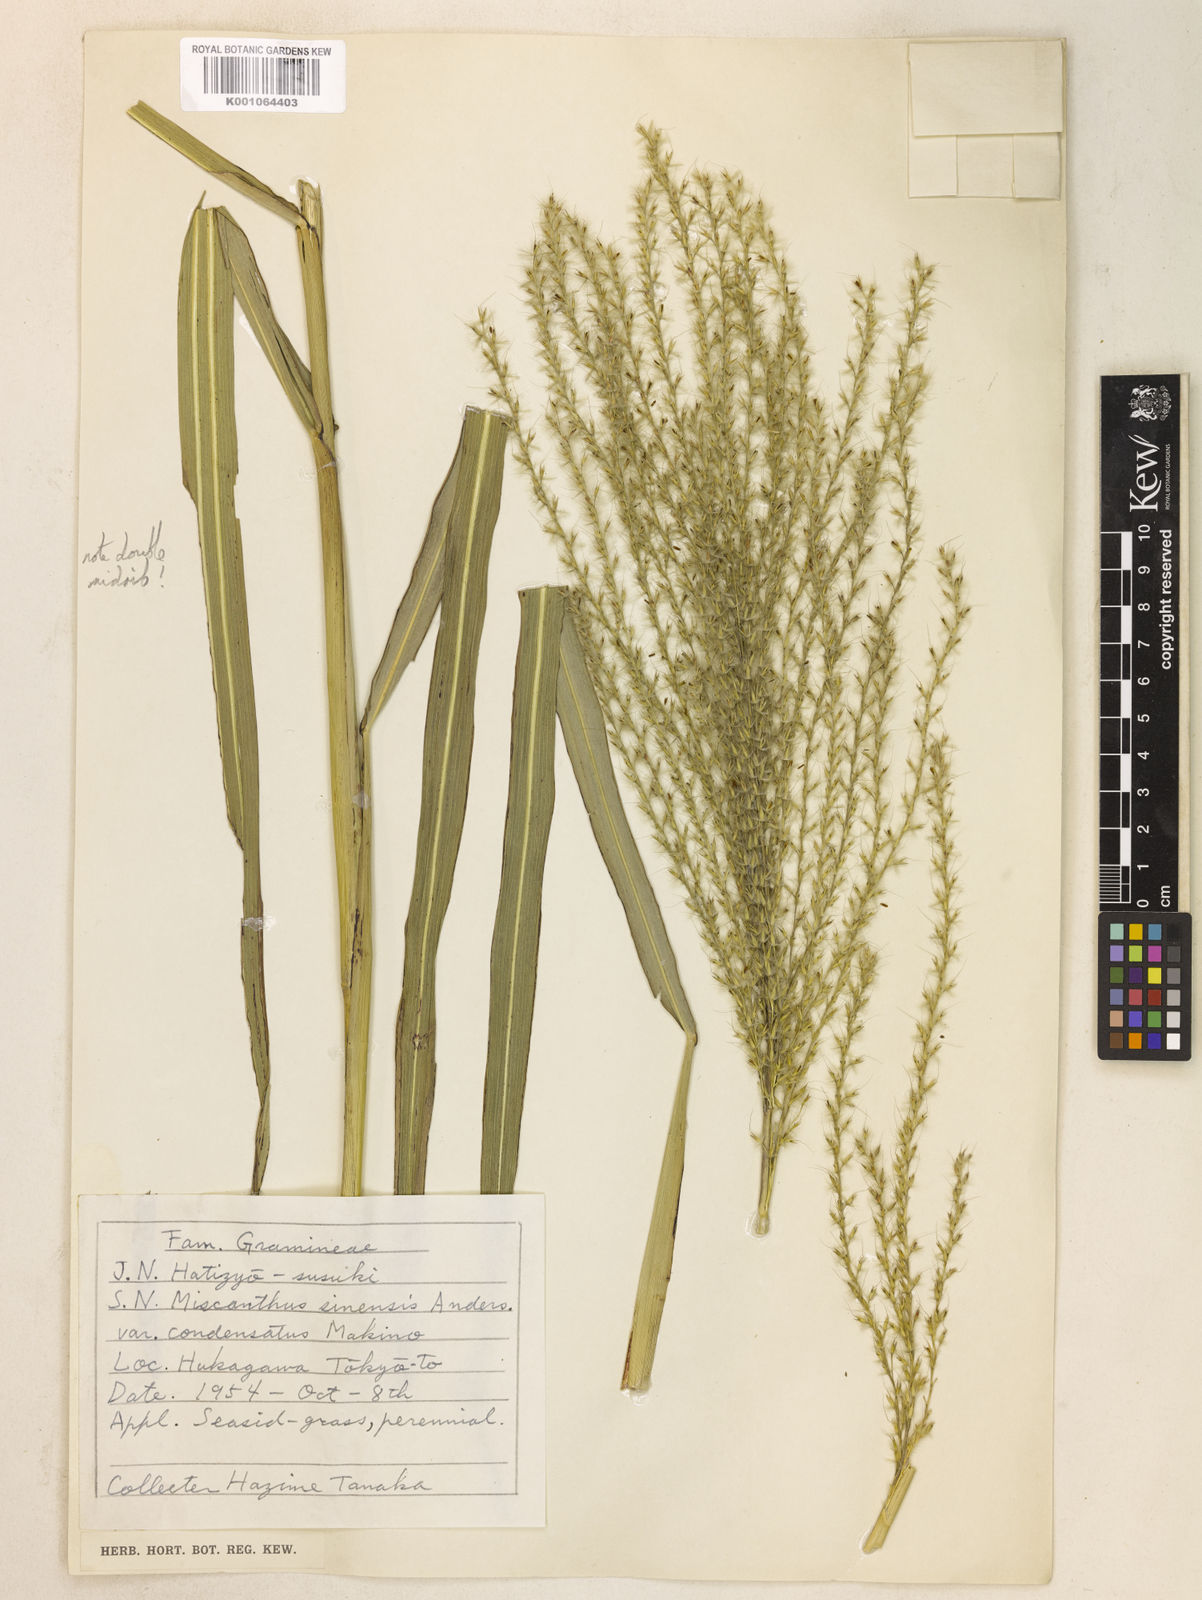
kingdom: Plantae
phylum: Tracheophyta
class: Liliopsida
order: Poales
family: Poaceae
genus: Miscanthus
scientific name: Miscanthus sinensis
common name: Chinese silvergrass
